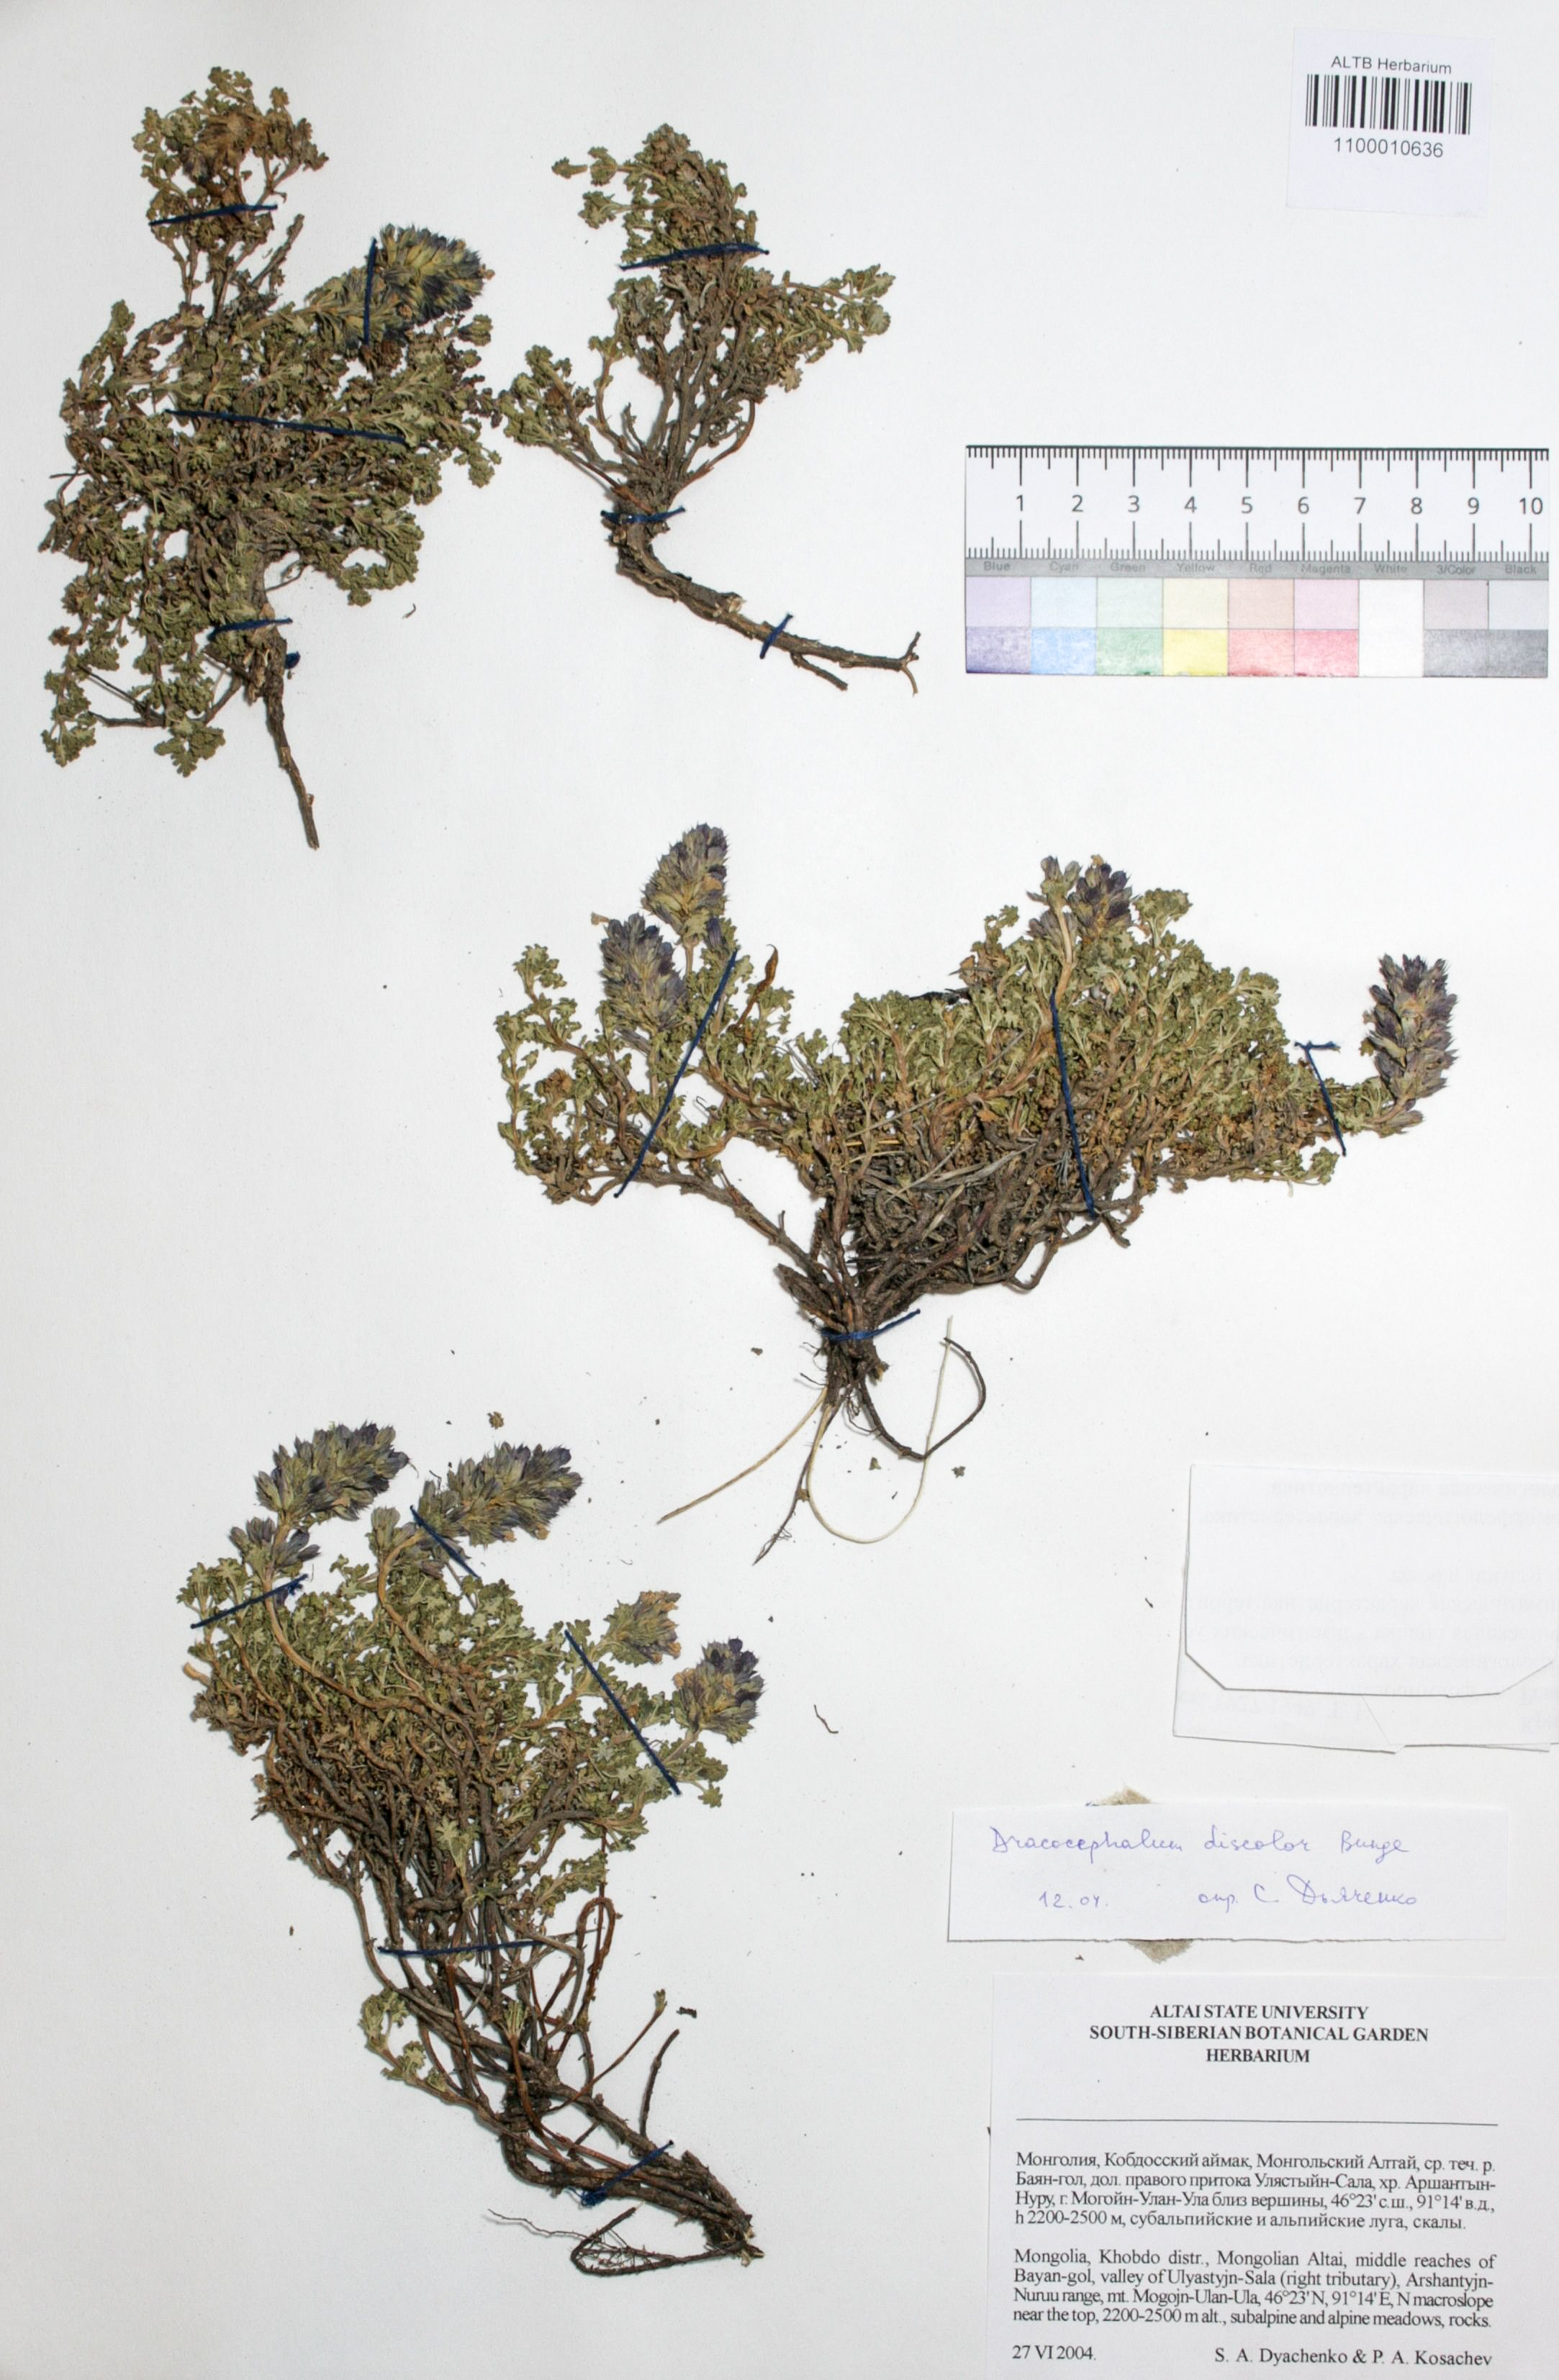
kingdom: Plantae
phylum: Tracheophyta
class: Magnoliopsida
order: Lamiales
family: Lamiaceae
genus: Dracocephalum
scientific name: Dracocephalum discolor
